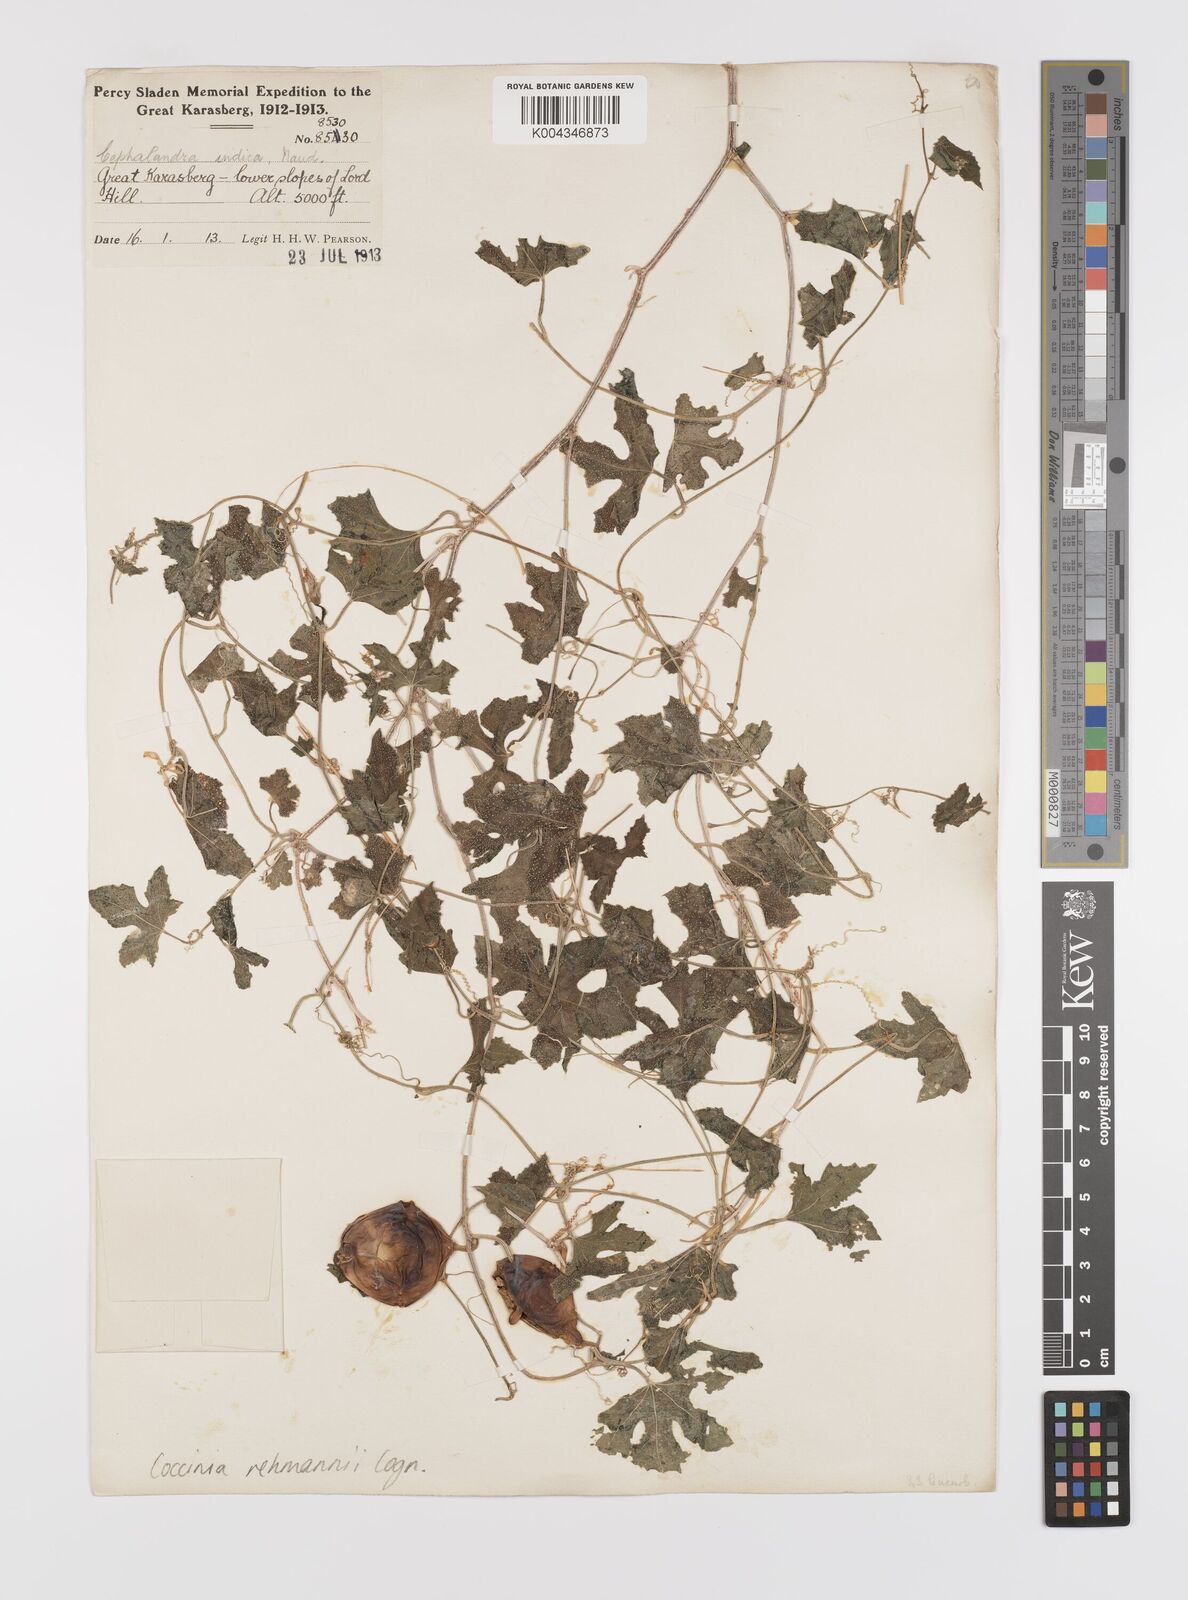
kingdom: Plantae
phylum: Tracheophyta
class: Magnoliopsida
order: Cucurbitales
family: Cucurbitaceae
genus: Coccinia
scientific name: Coccinia rehmannii
